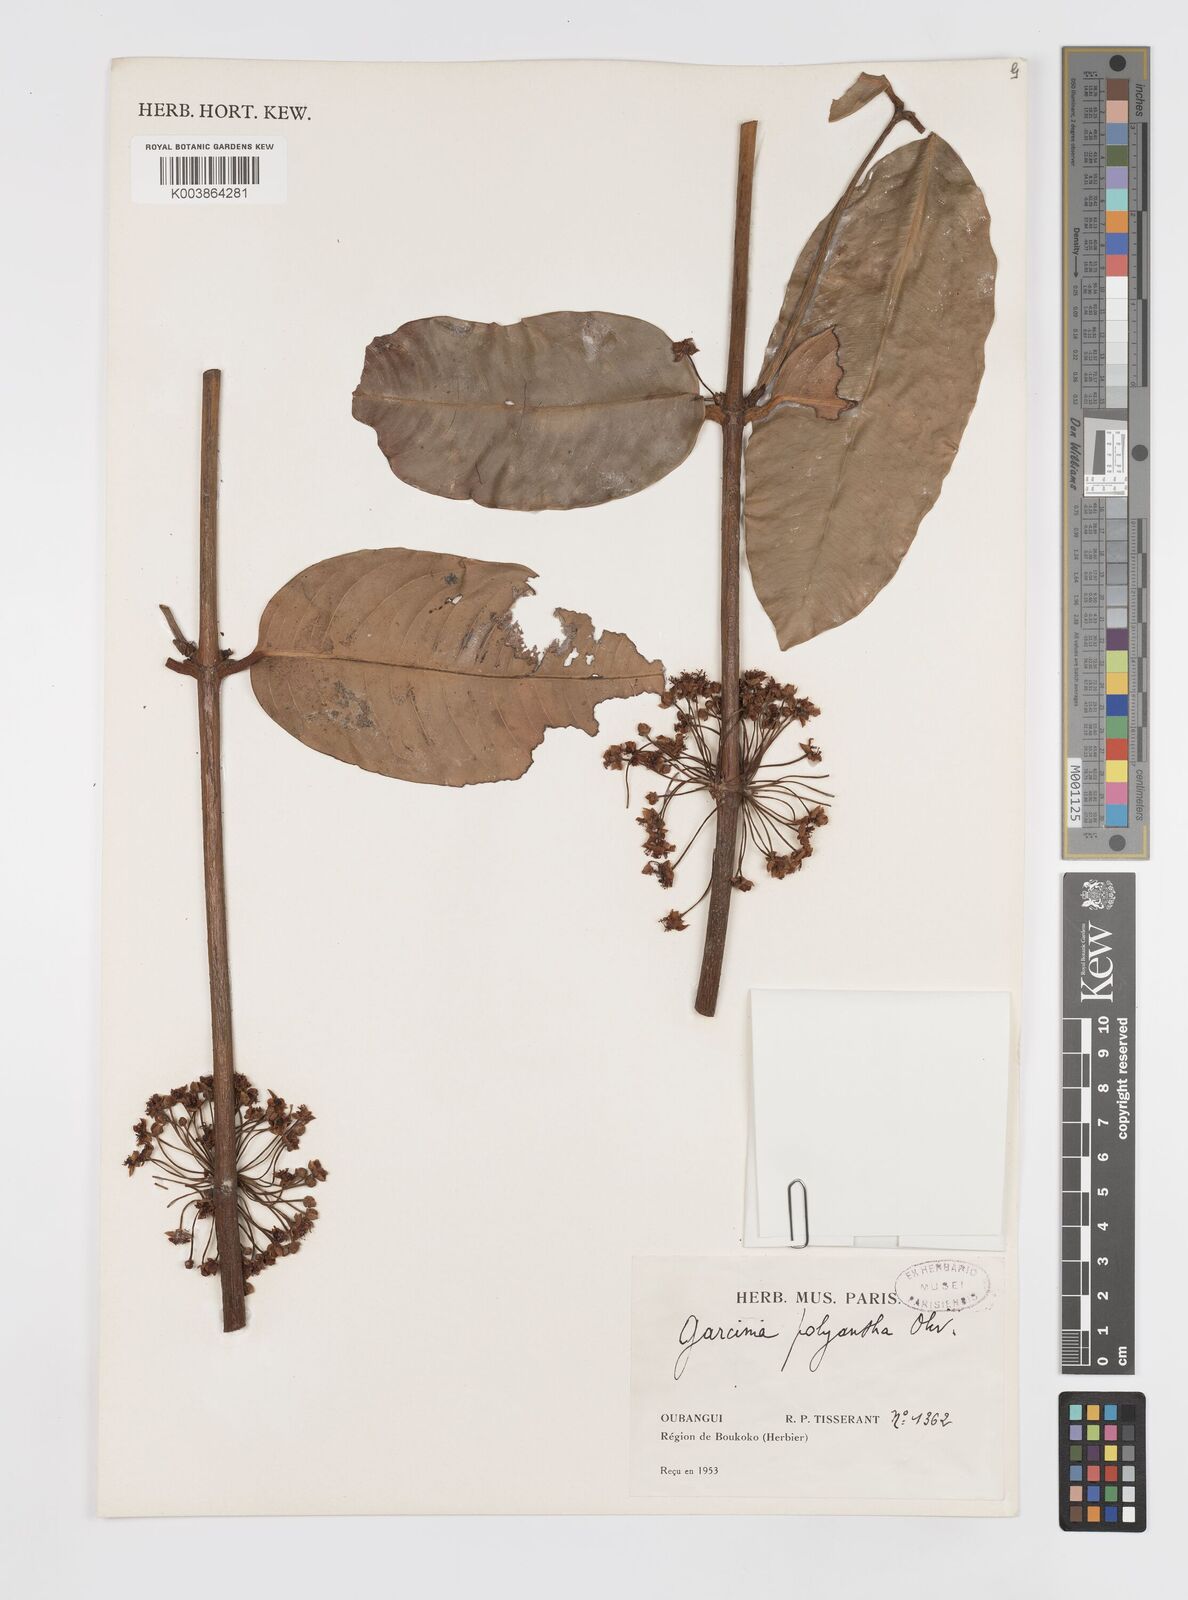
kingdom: Plantae
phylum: Tracheophyta
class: Magnoliopsida
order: Malpighiales
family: Clusiaceae
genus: Garcinia
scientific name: Garcinia smeathmannii
